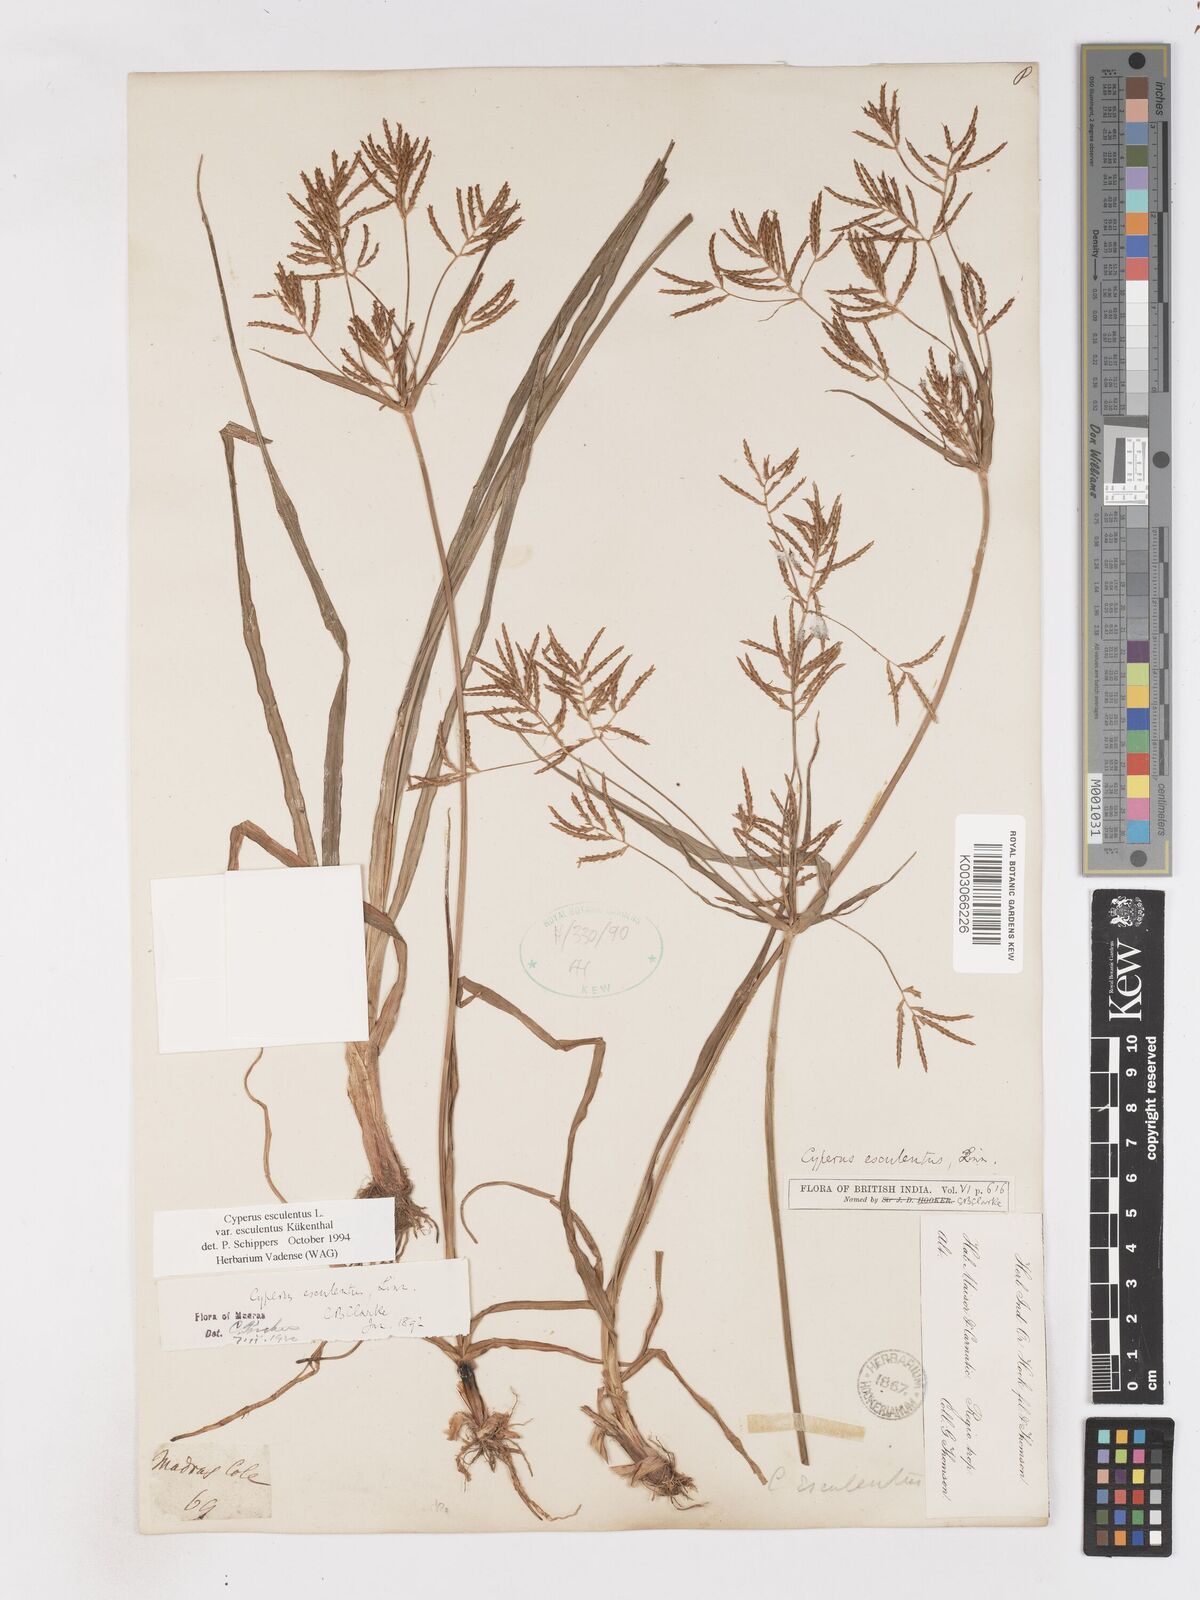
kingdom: Plantae
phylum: Tracheophyta
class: Liliopsida
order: Poales
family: Cyperaceae
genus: Cyperus
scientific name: Cyperus esculentus
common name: Yellow nutsedge
